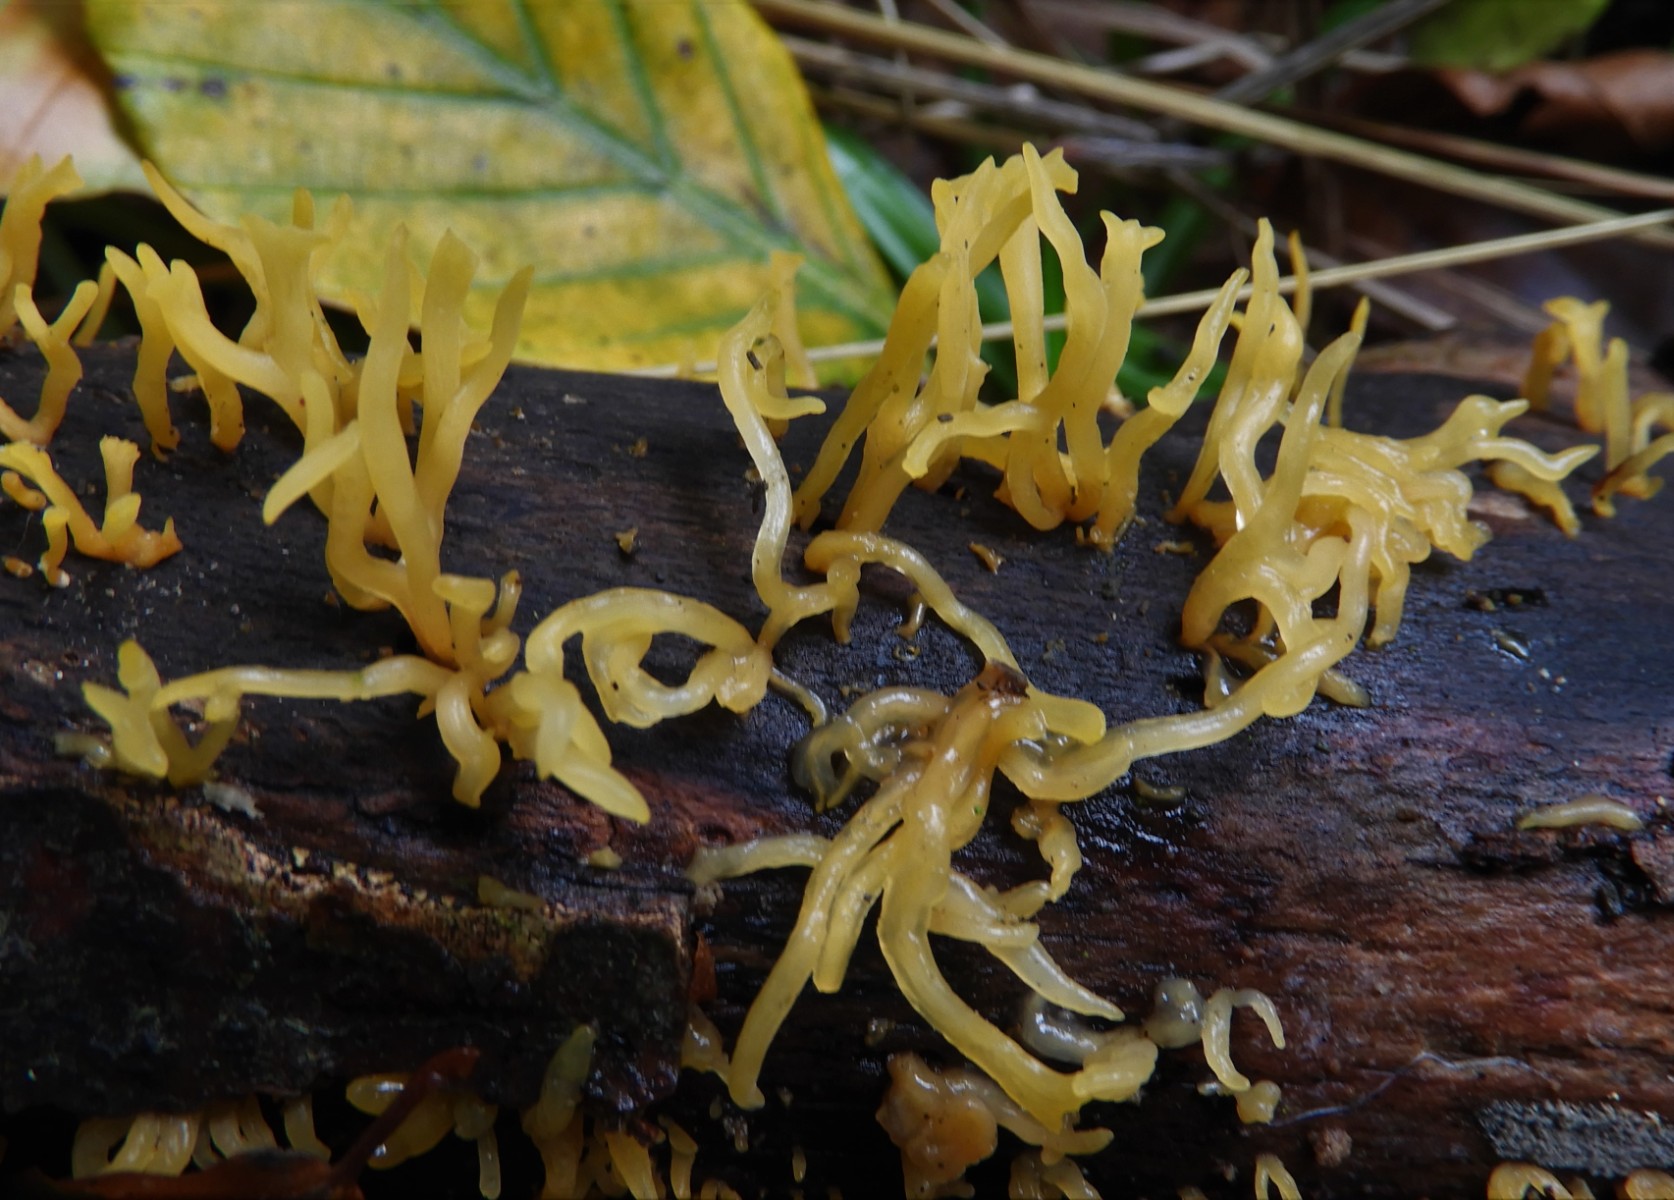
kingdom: Fungi
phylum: Basidiomycota
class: Dacrymycetes
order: Dacrymycetales
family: Dacrymycetaceae
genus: Calocera
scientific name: Calocera cornea
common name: liden guldgaffel
